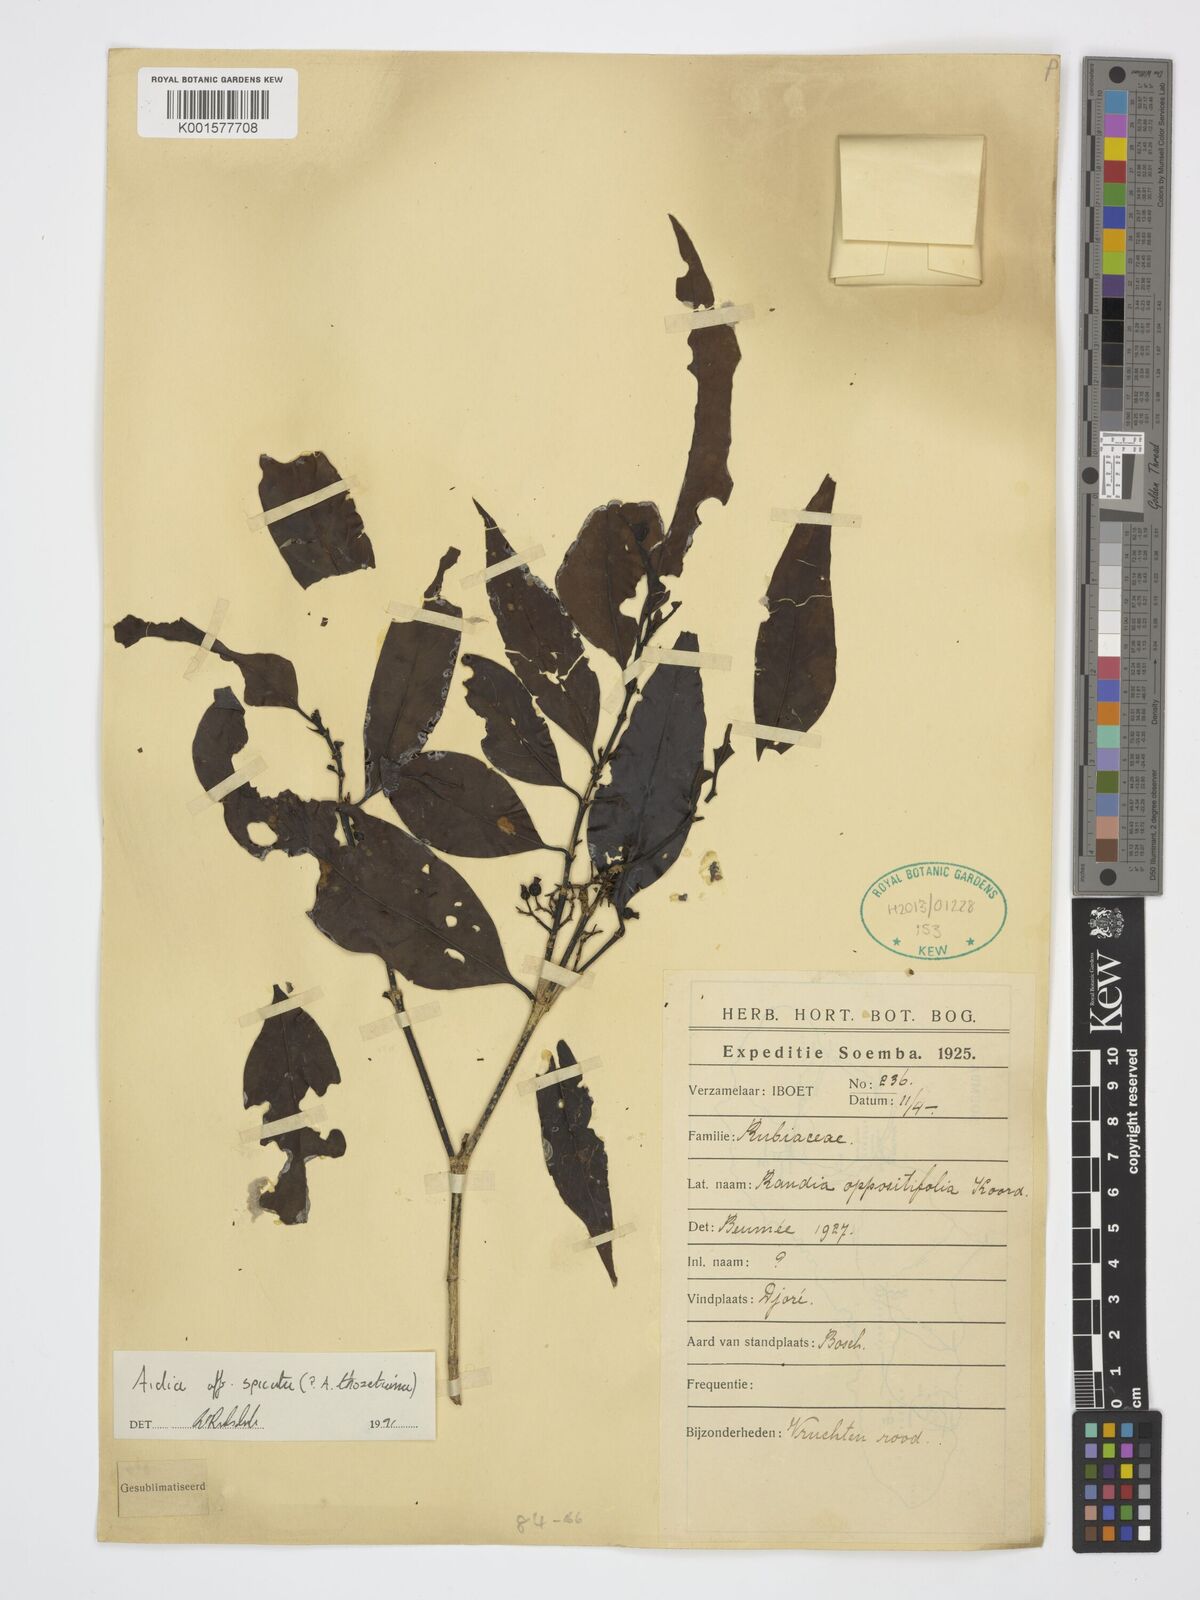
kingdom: Plantae
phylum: Tracheophyta
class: Magnoliopsida
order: Gentianales
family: Rubiaceae
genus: Aidia
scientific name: Aidia racemosa
